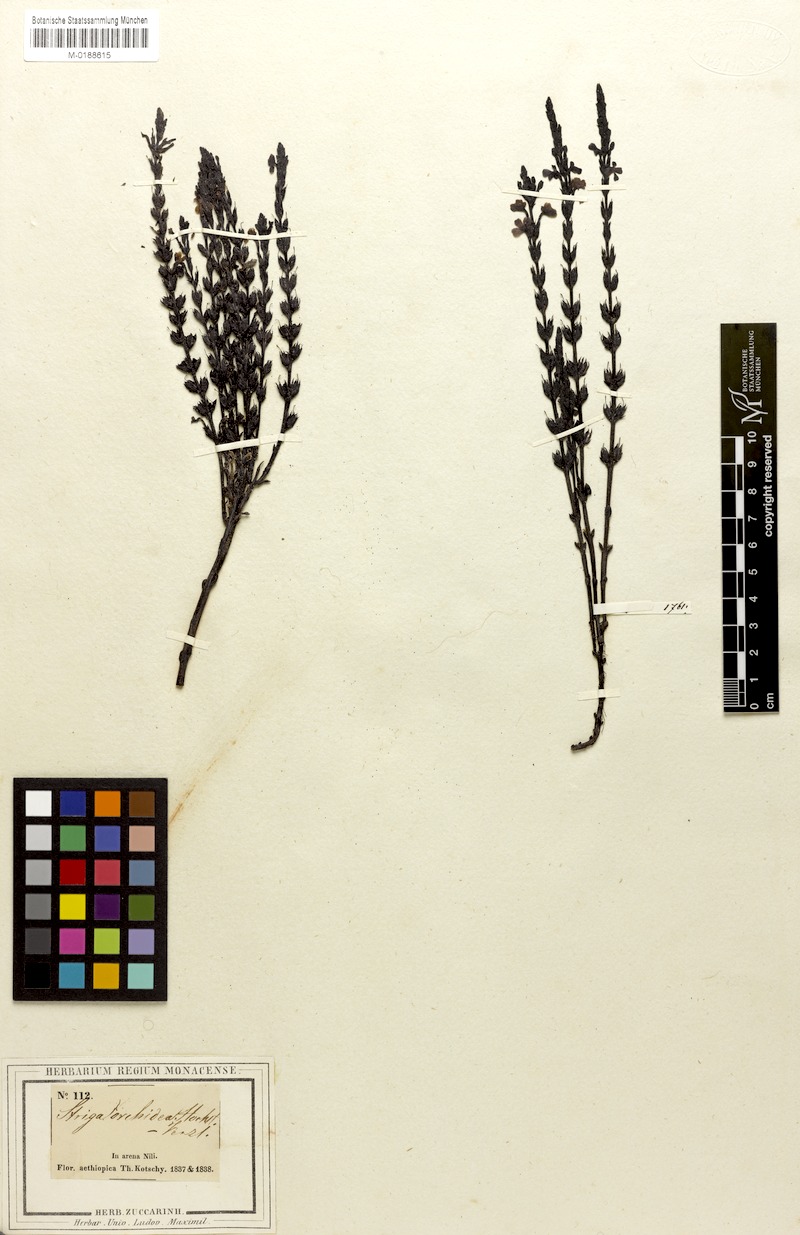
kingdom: Plantae
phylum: Tracheophyta
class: Magnoliopsida
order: Lamiales
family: Orobanchaceae
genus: Striga
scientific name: Striga gesnerioides
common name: Cowpea witchweed
